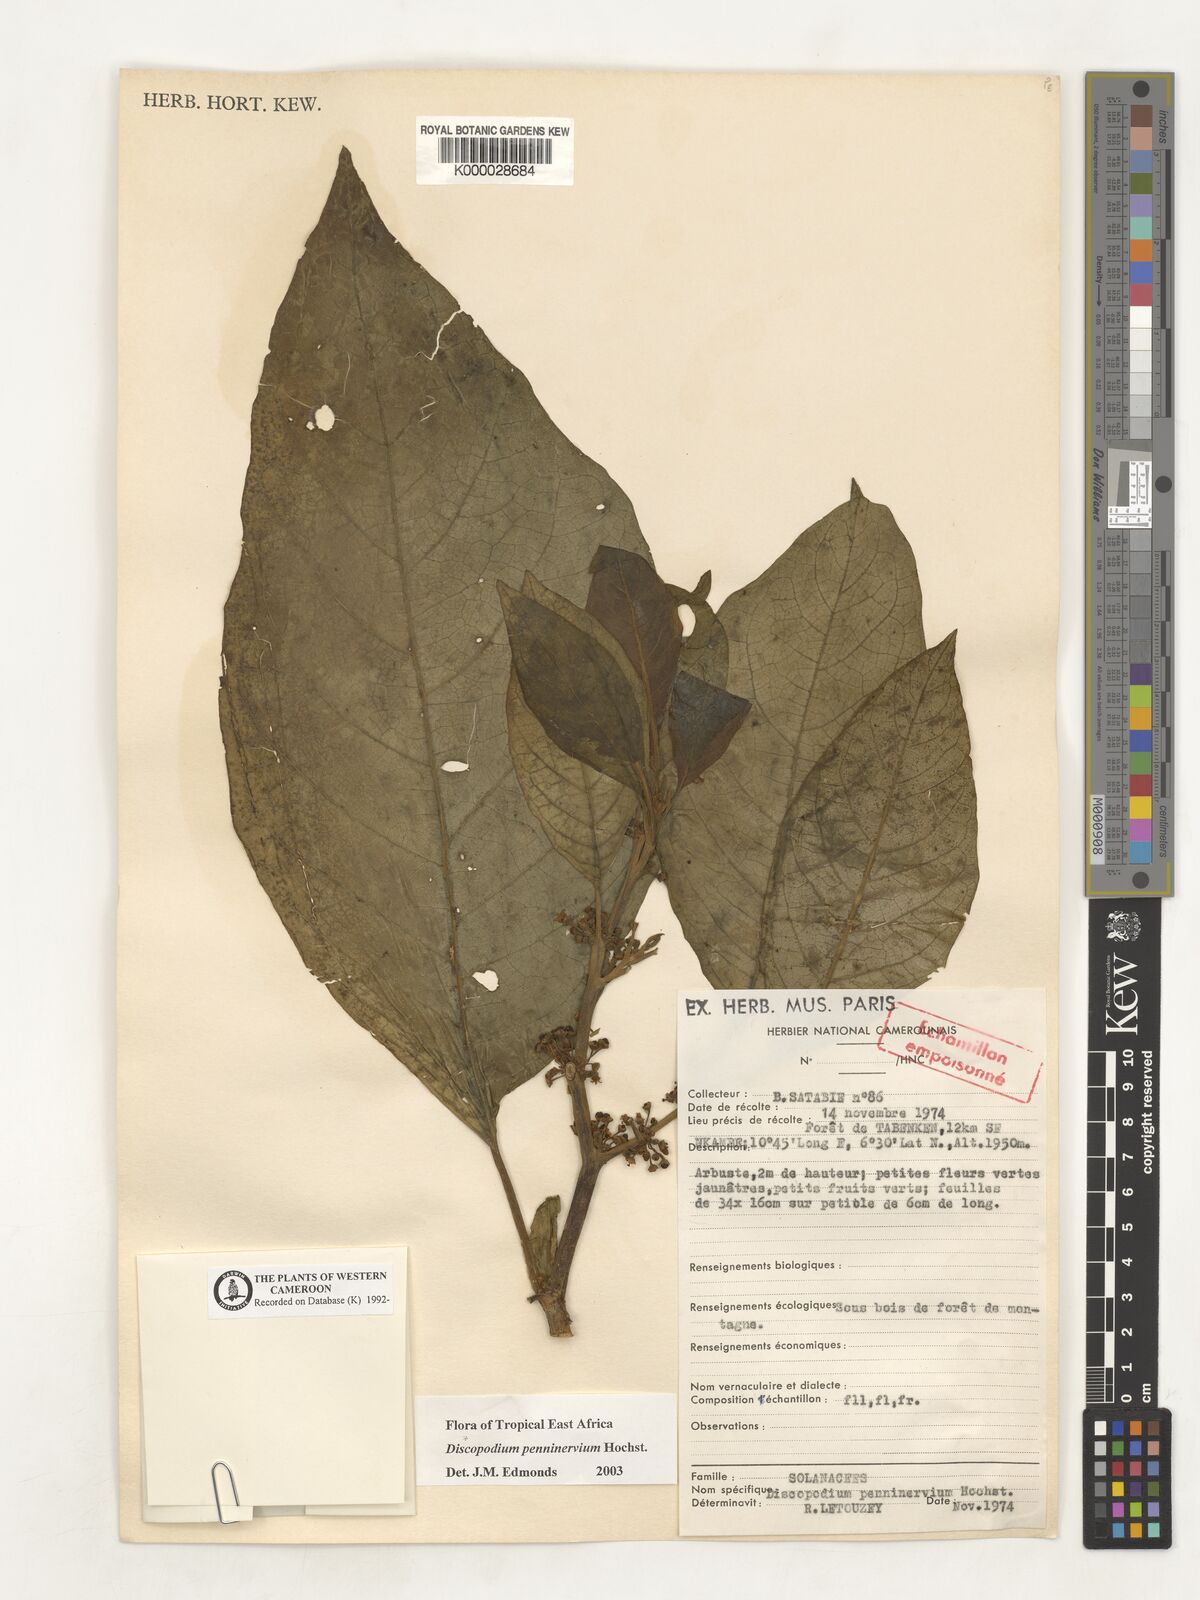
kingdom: Plantae
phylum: Tracheophyta
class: Magnoliopsida
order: Solanales
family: Solanaceae
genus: Discopodium
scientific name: Discopodium penninervium
